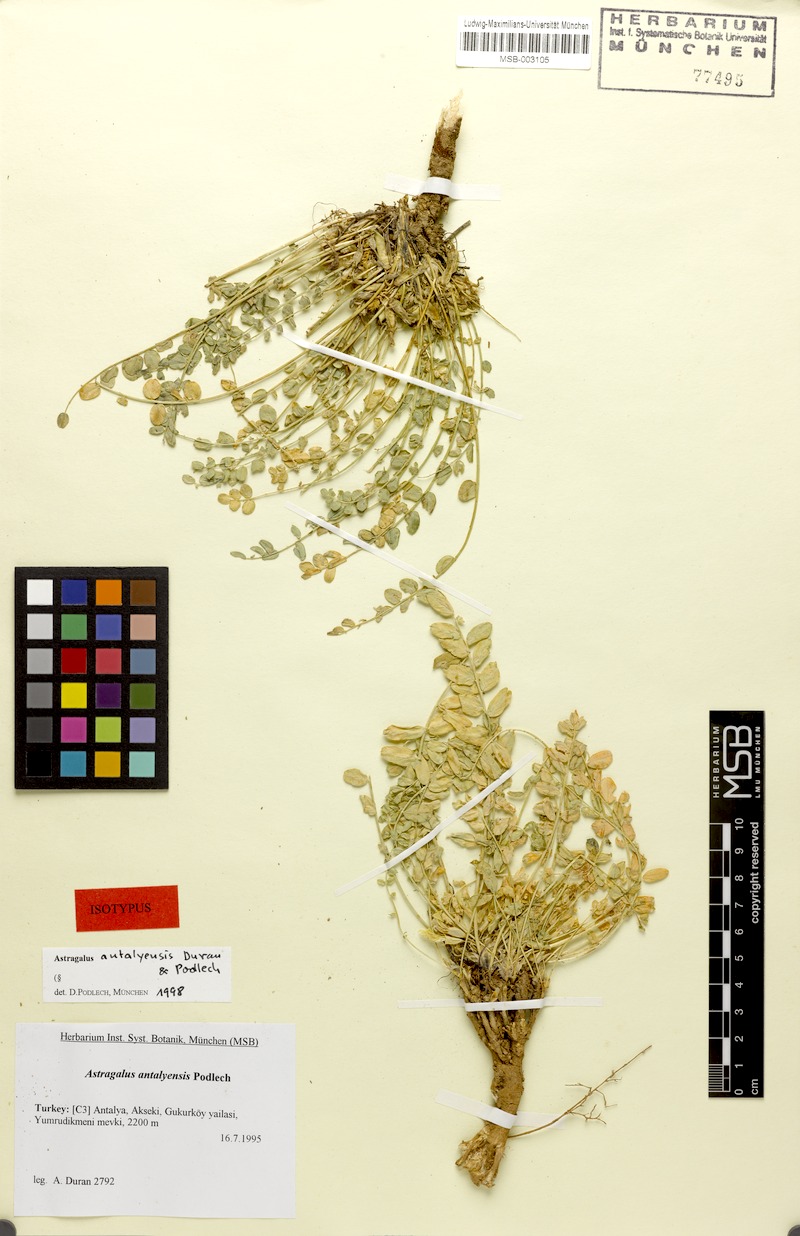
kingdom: Plantae
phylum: Tracheophyta
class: Magnoliopsida
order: Fabales
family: Fabaceae
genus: Astragalus
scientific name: Astragalus antalyensis
